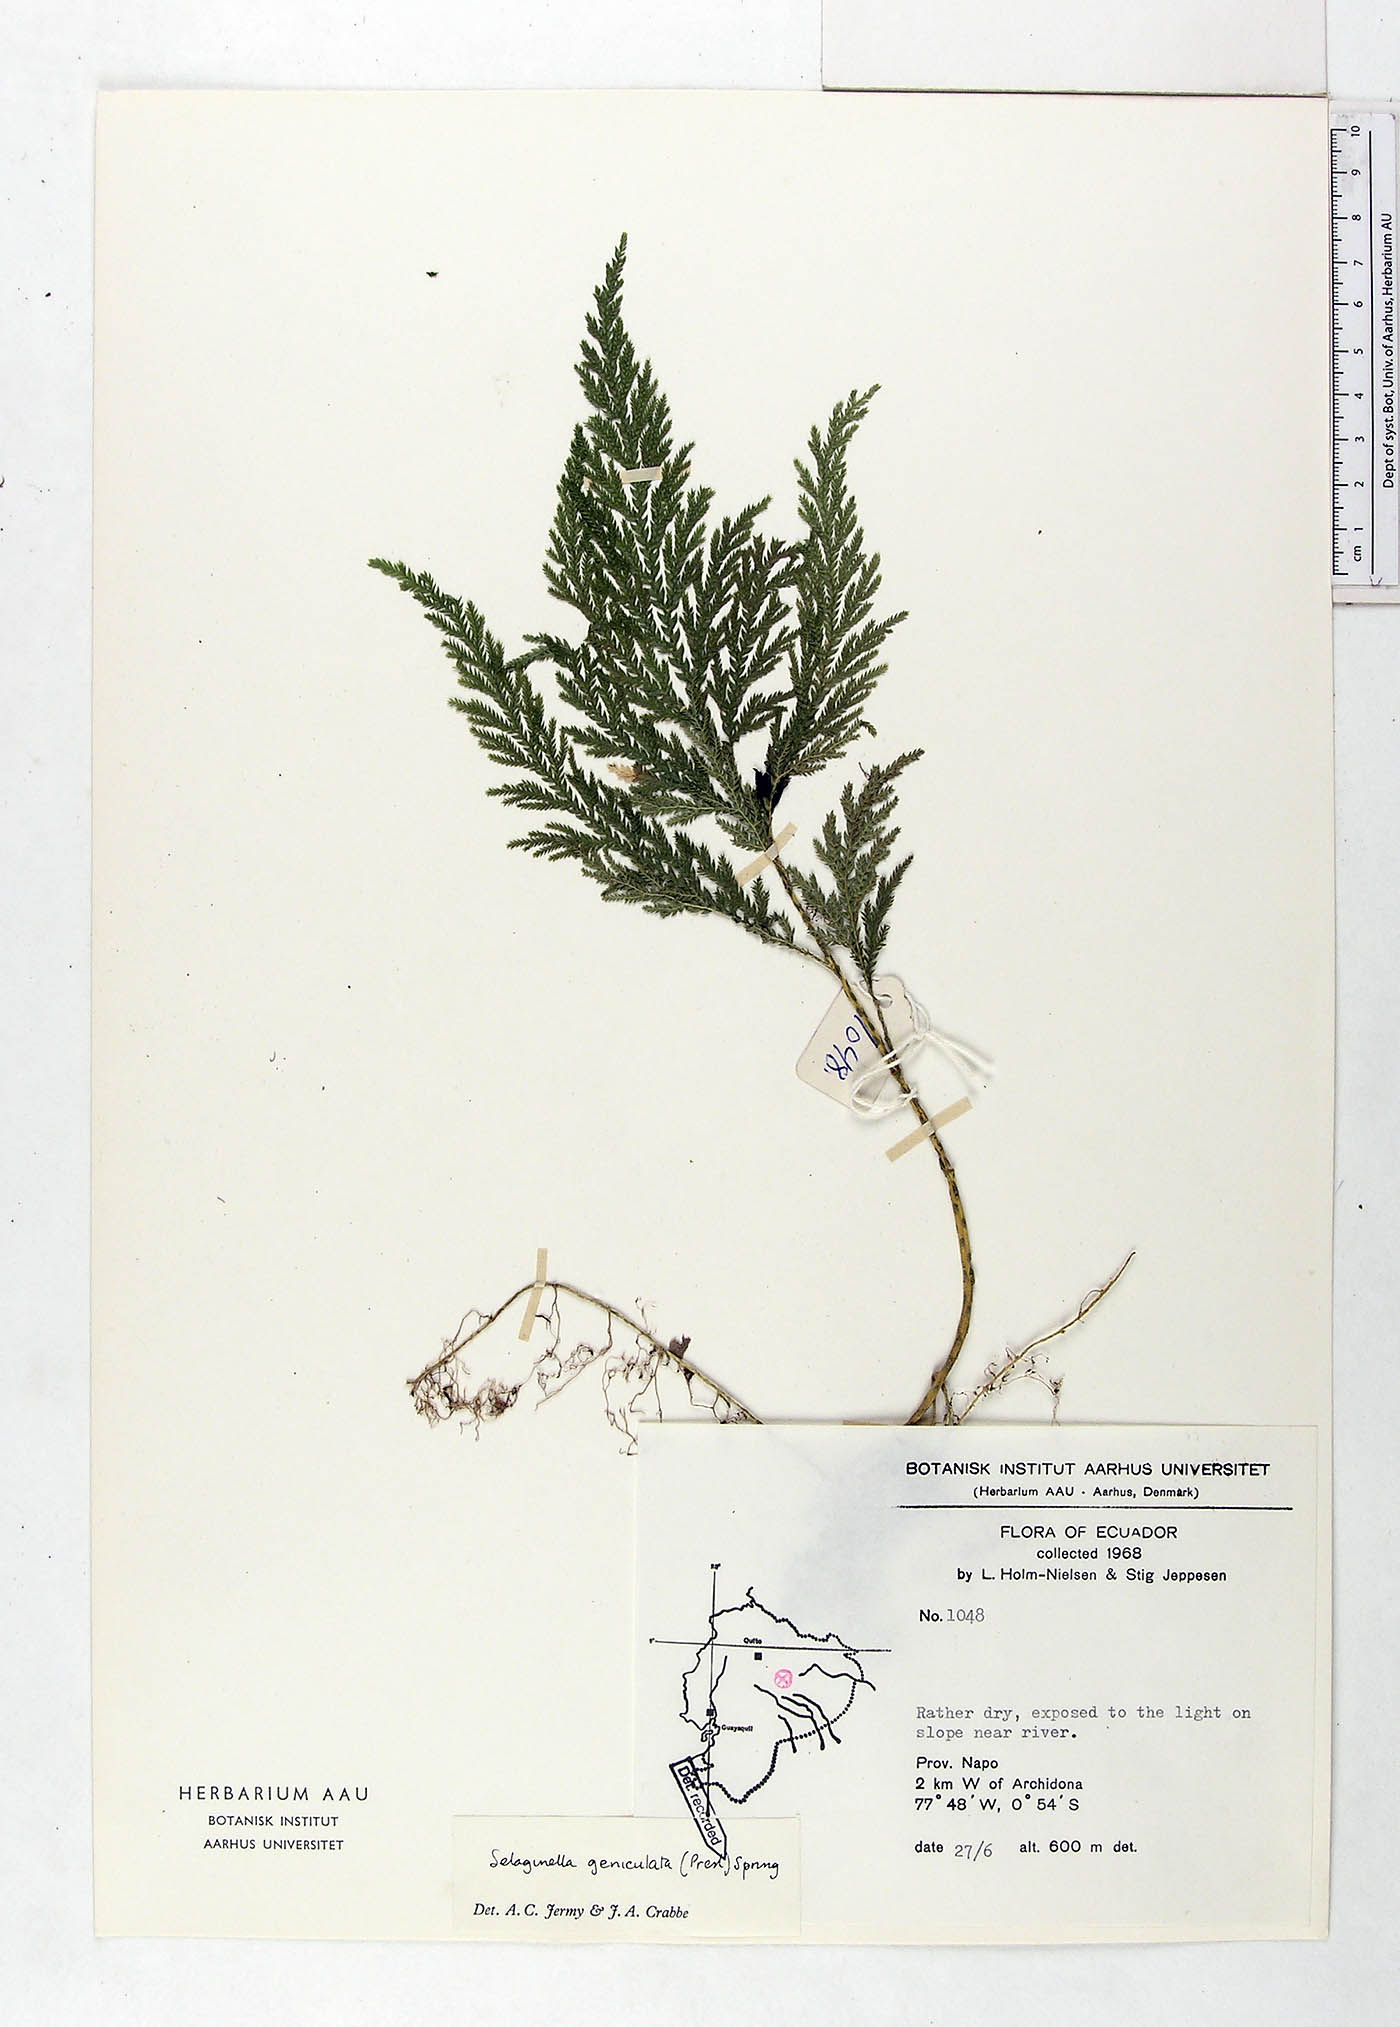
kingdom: Plantae
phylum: Tracheophyta
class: Lycopodiopsida
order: Selaginellales
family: Selaginellaceae
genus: Selaginella
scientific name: Selaginella geniculata
